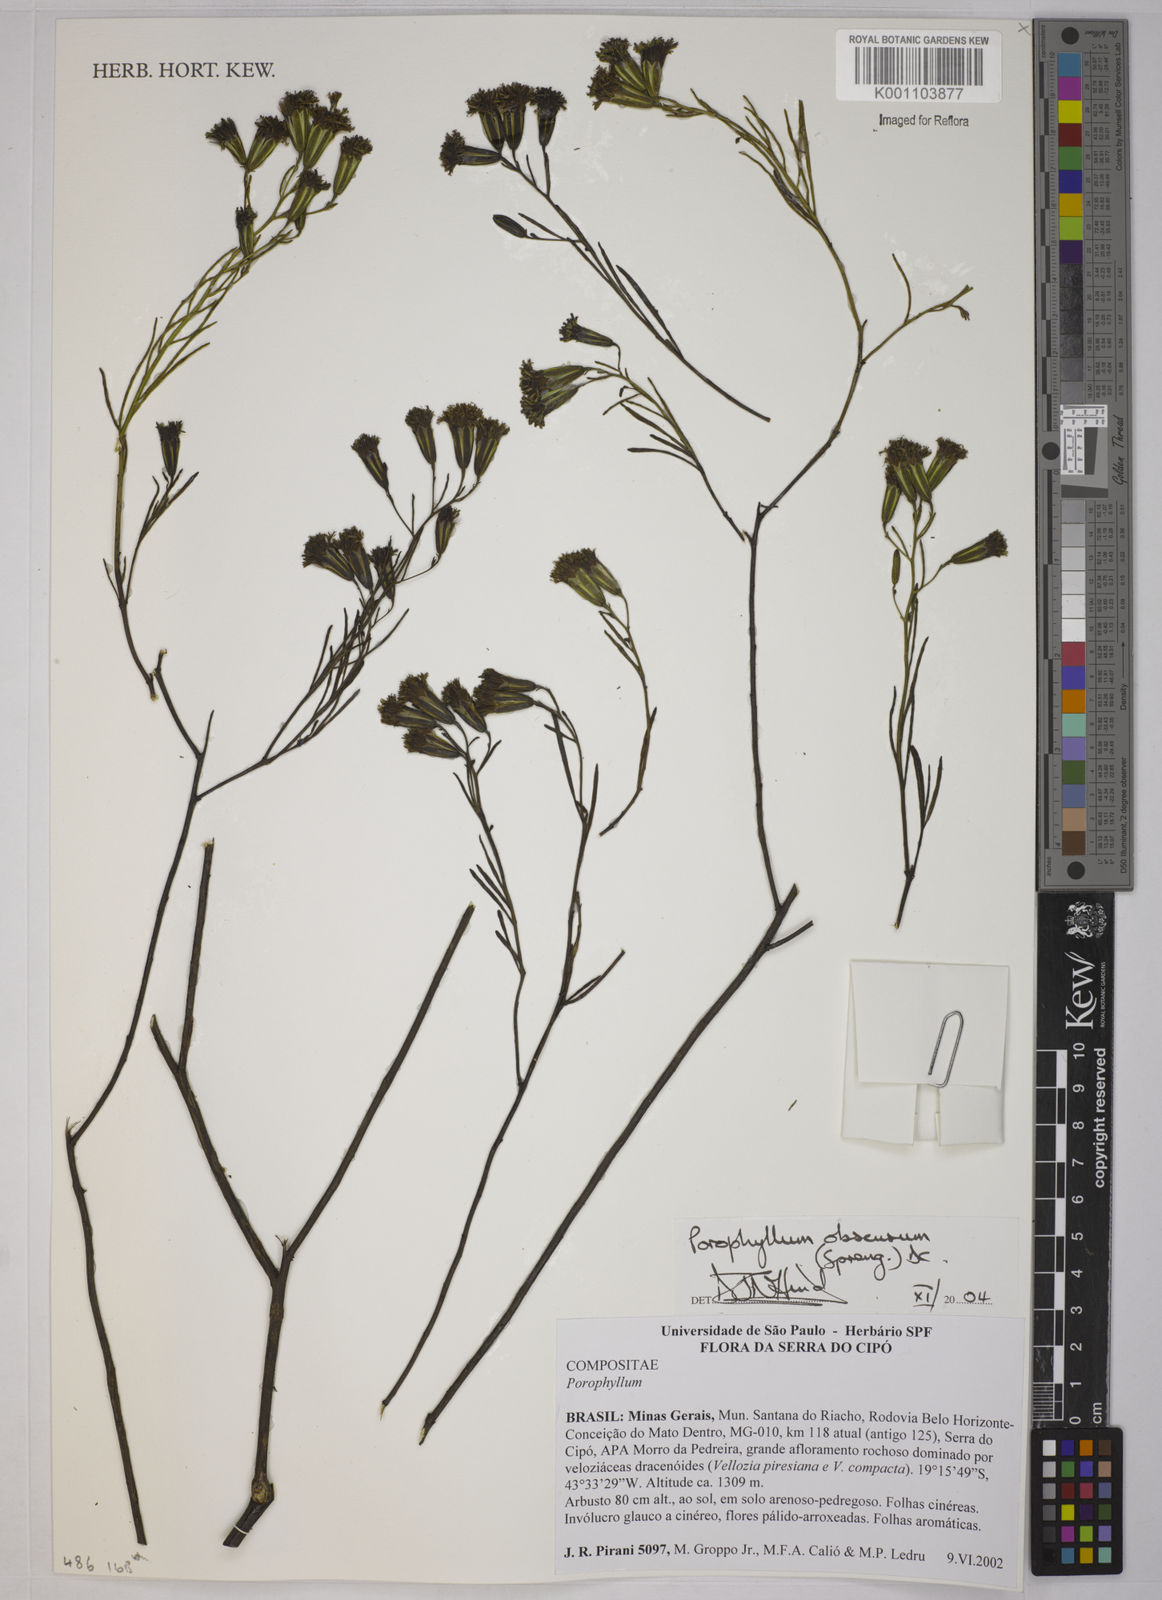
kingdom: Plantae
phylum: Tracheophyta
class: Magnoliopsida
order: Asterales
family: Asteraceae
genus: Porophyllum
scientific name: Porophyllum obscurum
